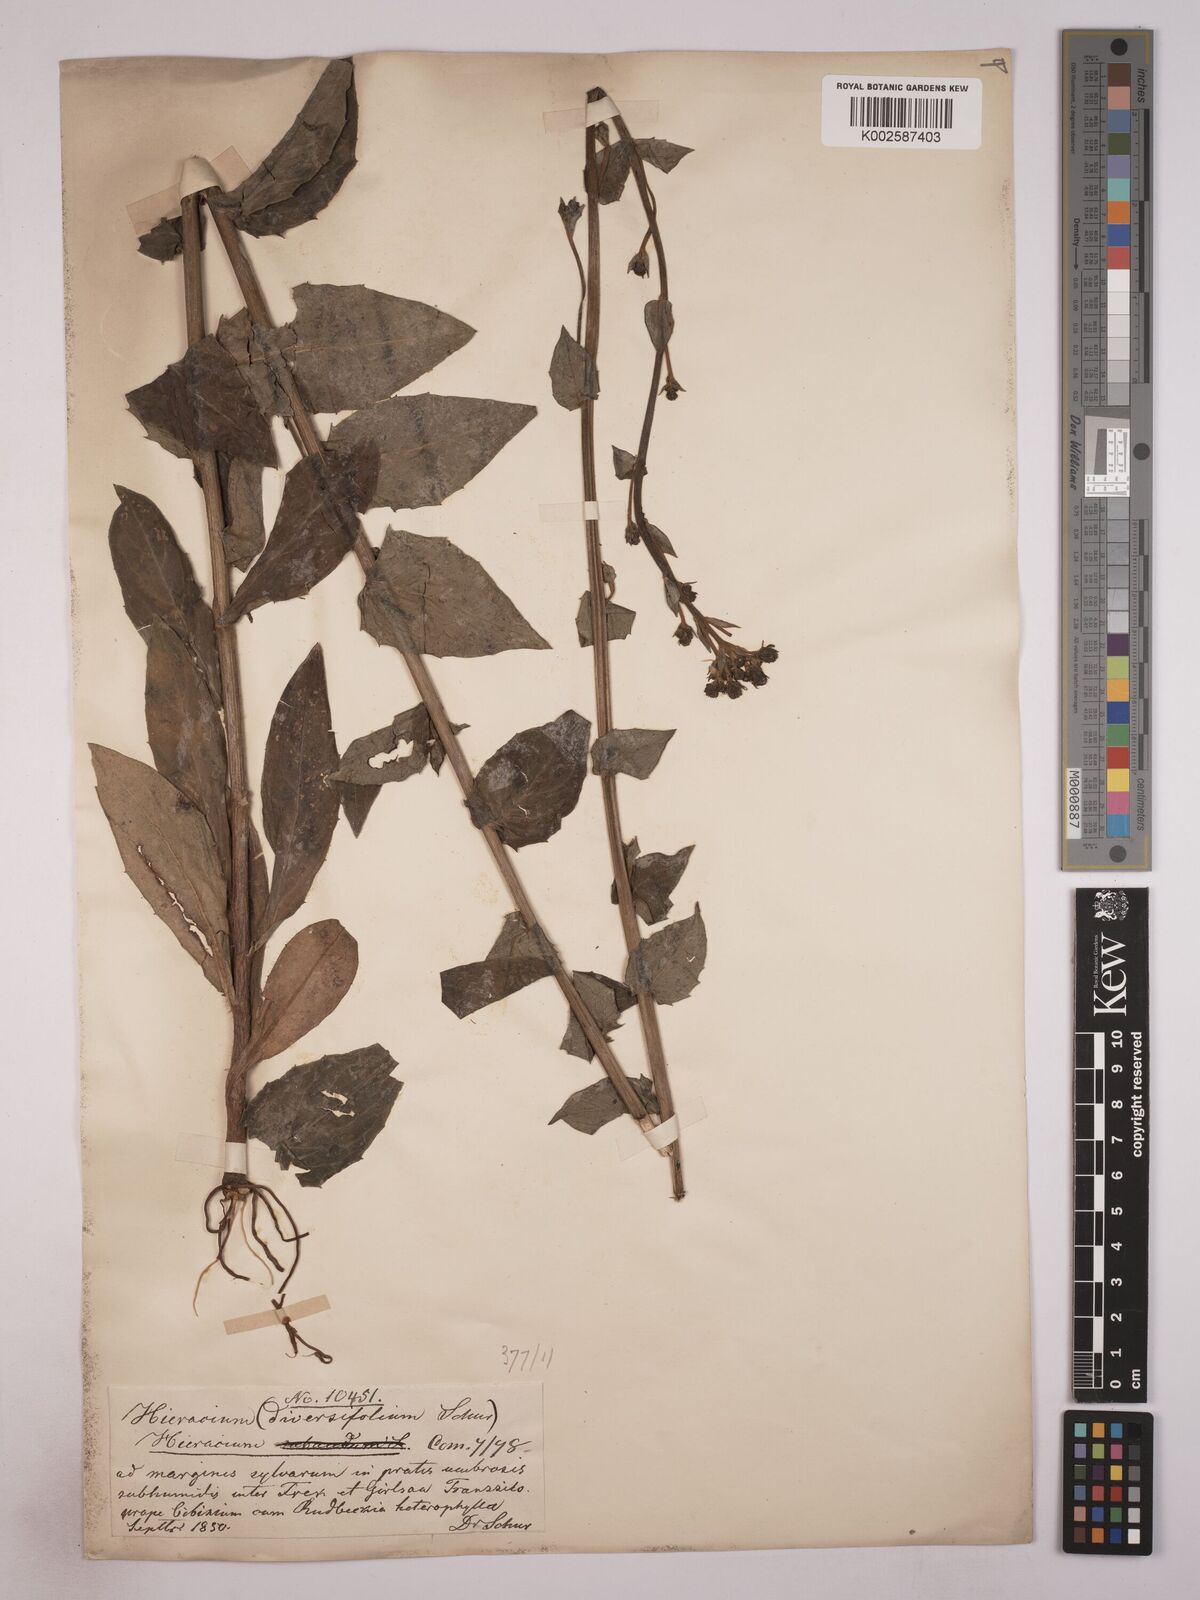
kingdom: Plantae
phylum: Tracheophyta
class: Magnoliopsida
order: Asterales
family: Asteraceae
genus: Hieracium
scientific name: Hieracium subaudum
